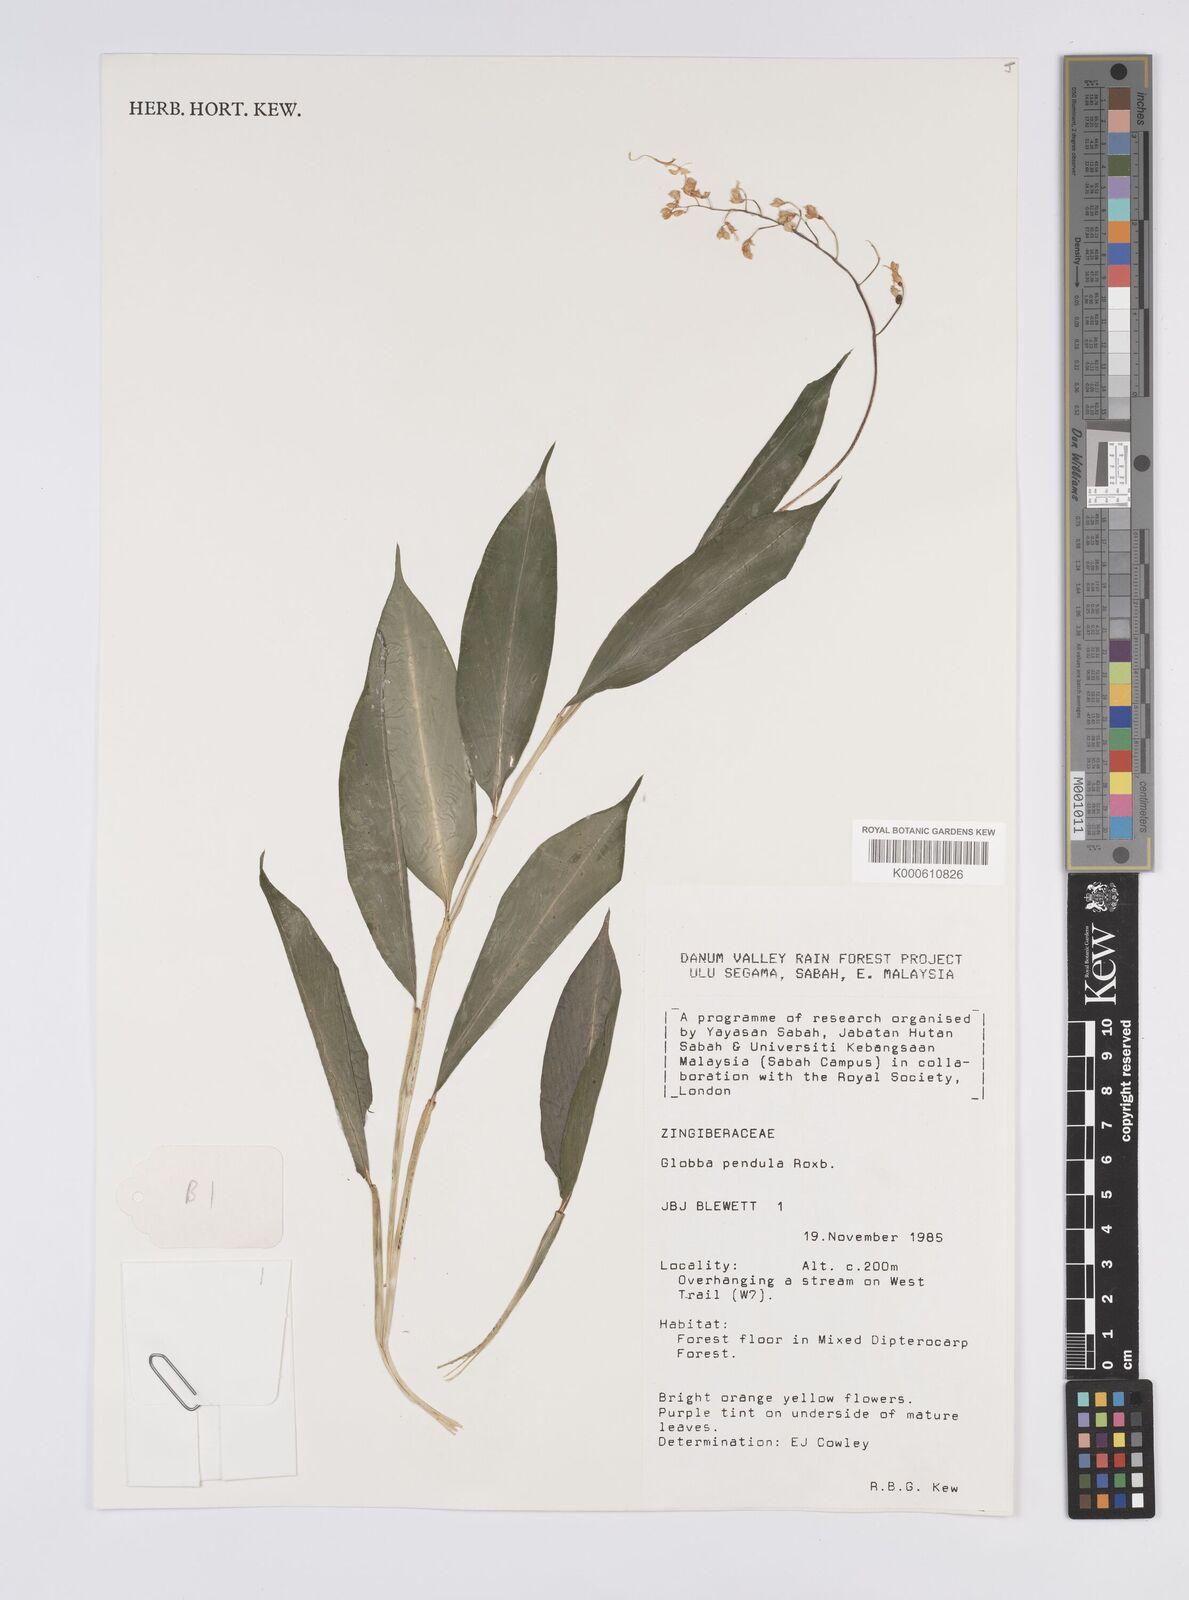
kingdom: Plantae
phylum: Tracheophyta
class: Liliopsida
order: Zingiberales
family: Zingiberaceae
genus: Globba
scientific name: Globba pendula
